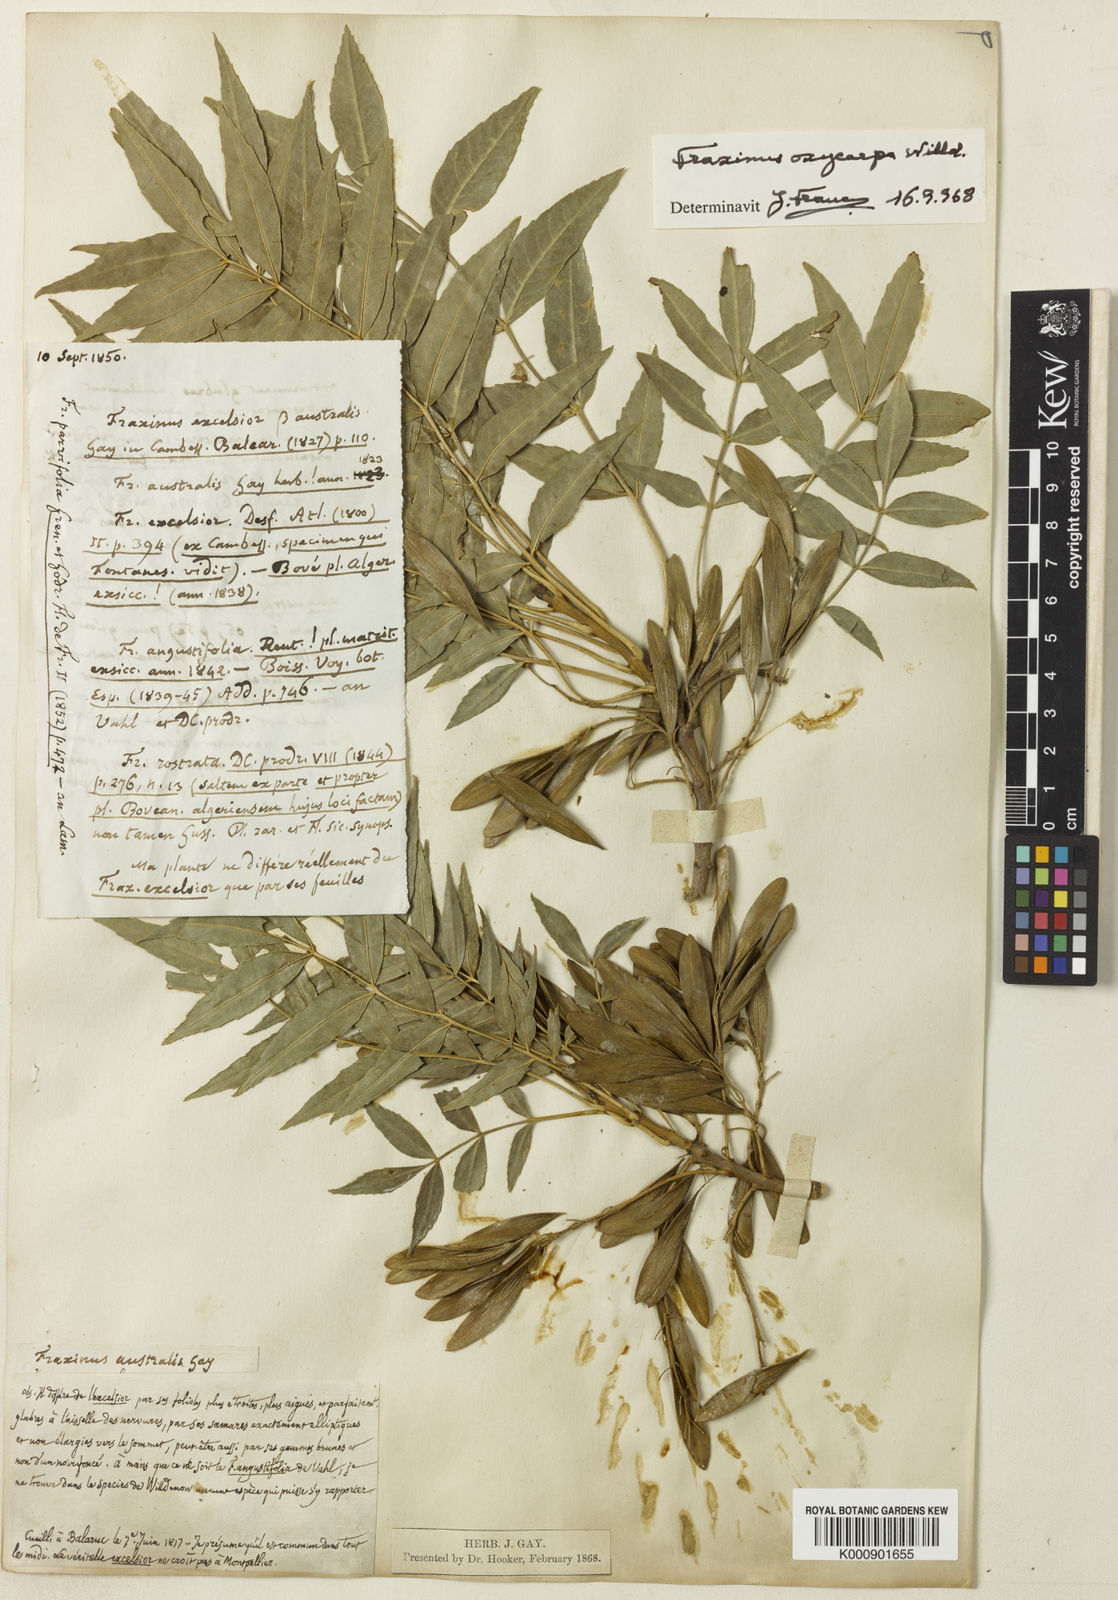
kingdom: Plantae
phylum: Tracheophyta
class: Magnoliopsida
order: Lamiales
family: Oleaceae
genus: Fraxinus
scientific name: Fraxinus angustifolia
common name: Narrow-leafed ash
